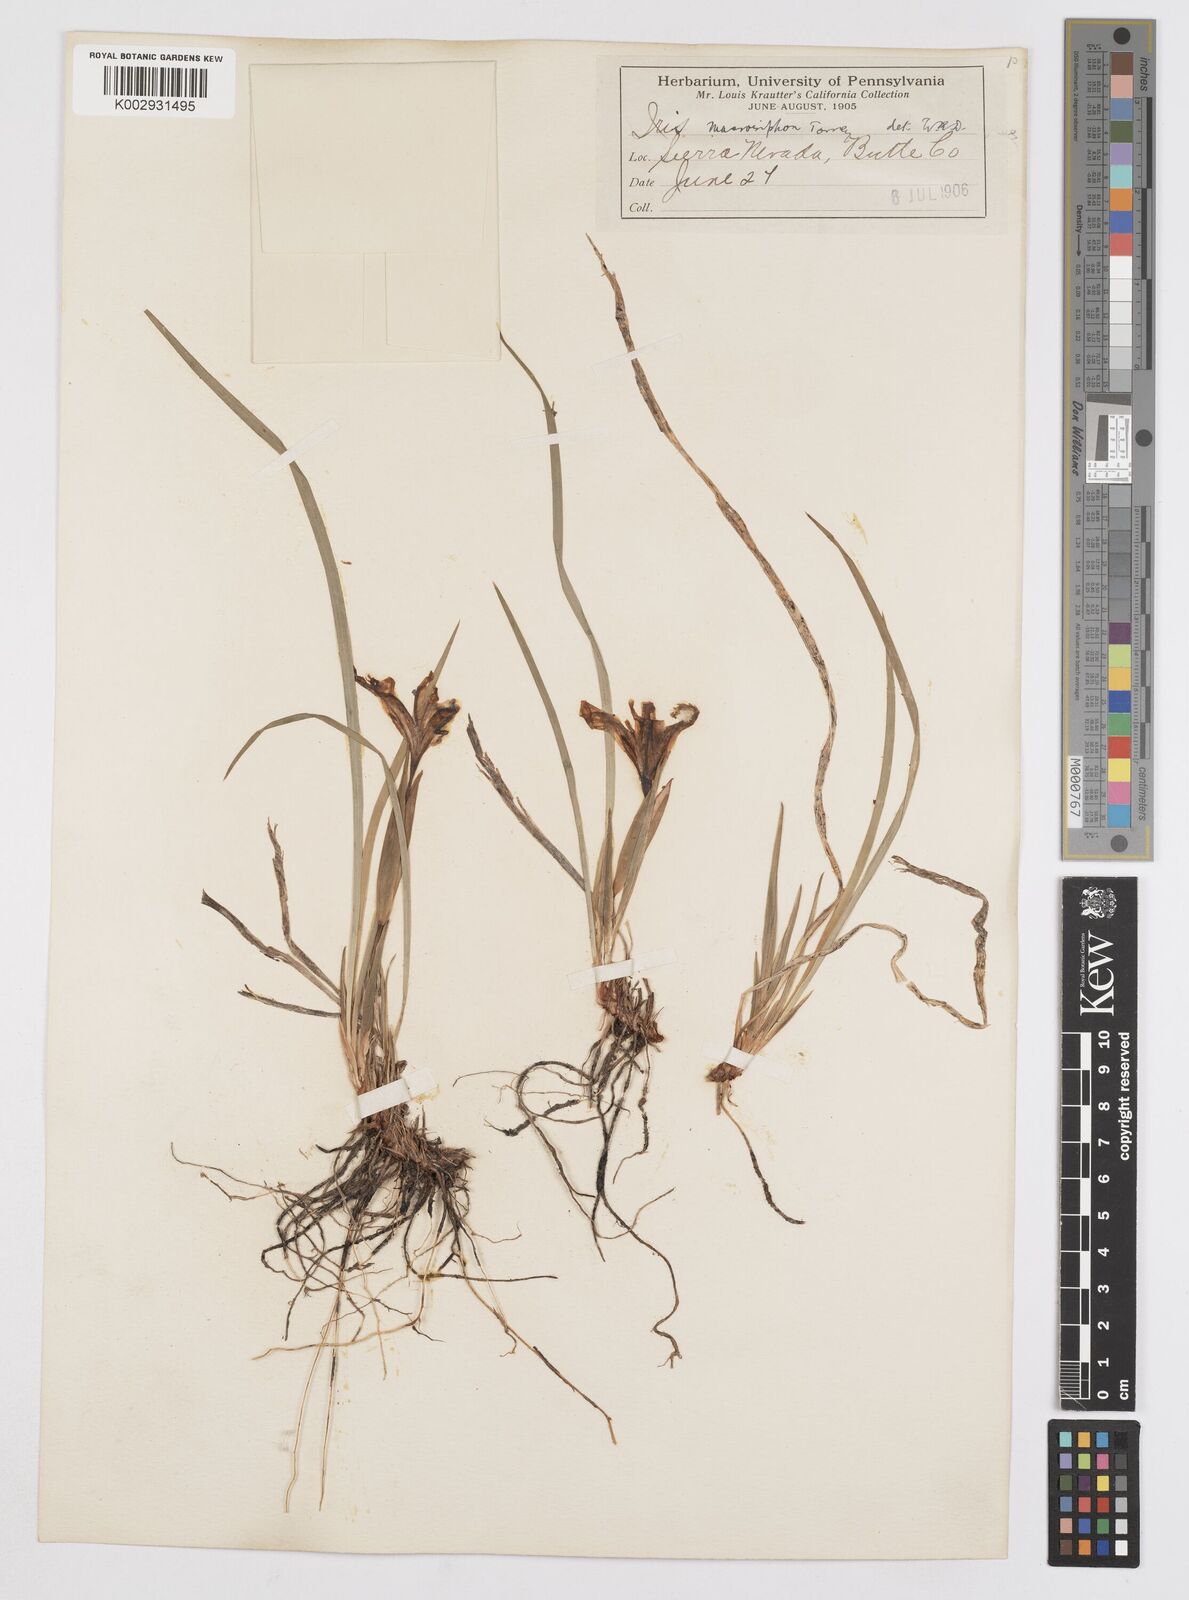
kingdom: Plantae
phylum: Tracheophyta
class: Liliopsida
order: Asparagales
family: Iridaceae
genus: Iris
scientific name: Iris macrosiphon
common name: Ground iris
